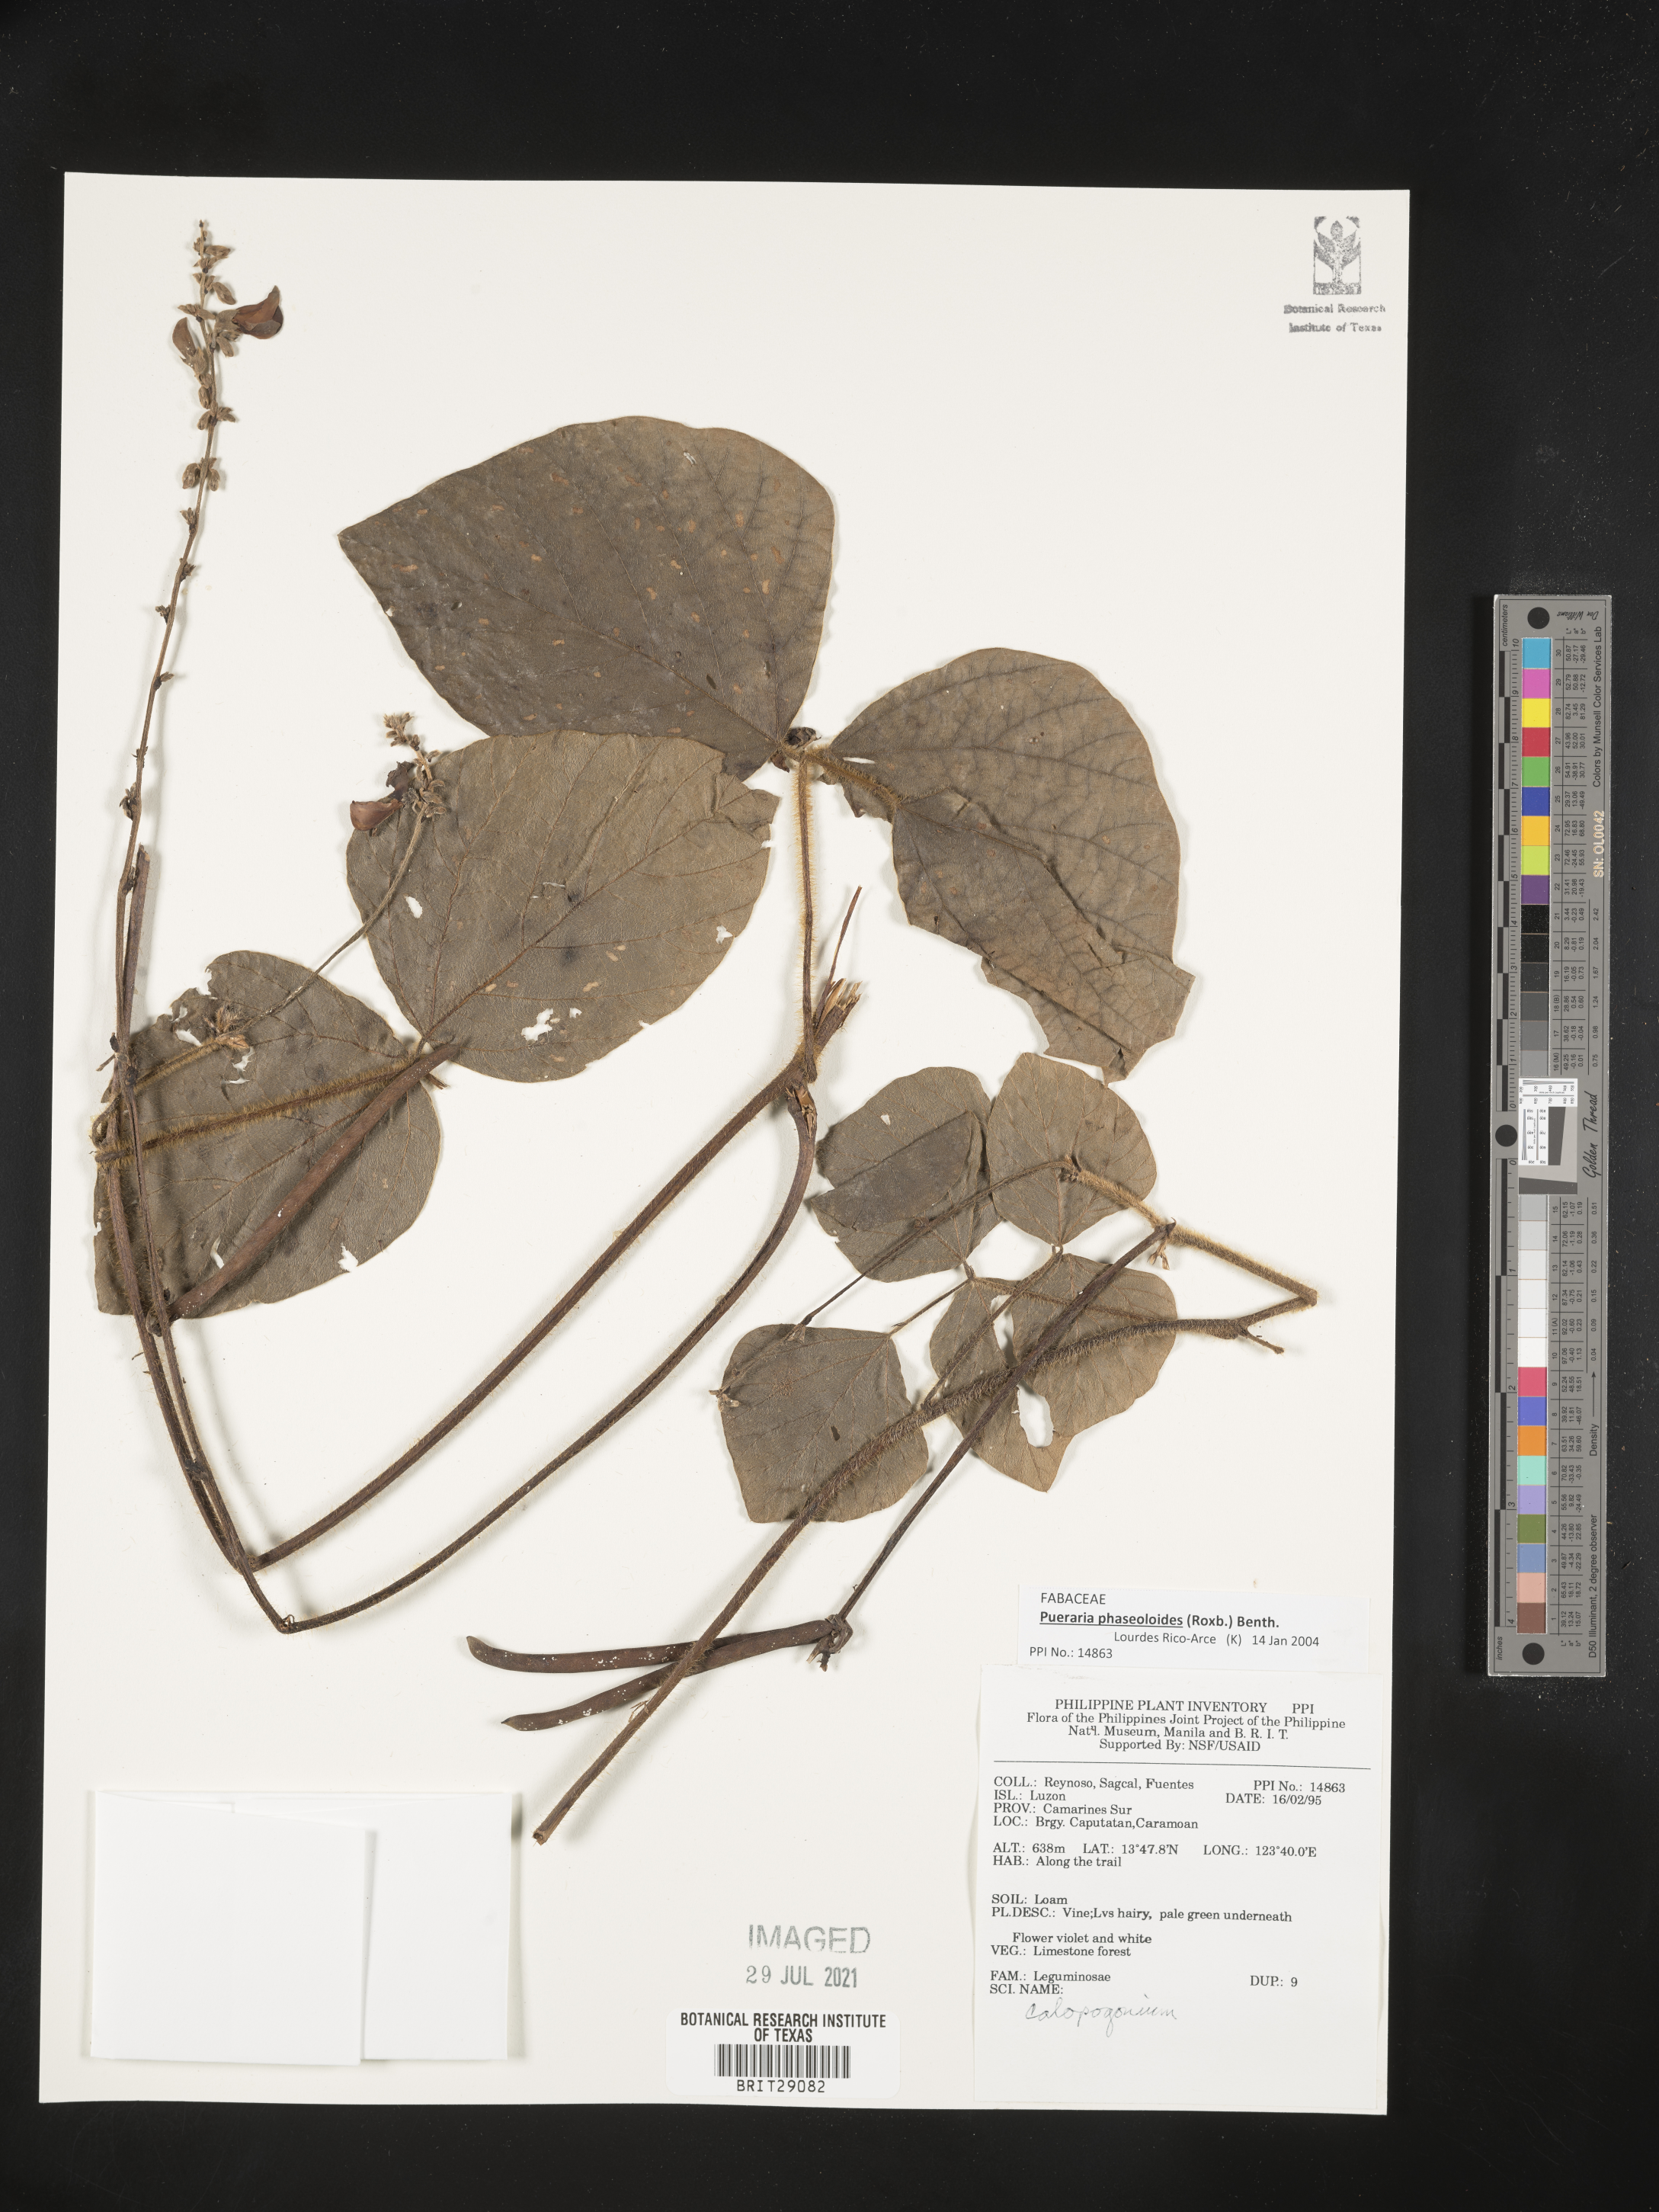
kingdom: Plantae
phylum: Tracheophyta
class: Magnoliopsida
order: Fabales
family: Fabaceae
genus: Neustanthus
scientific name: Neustanthus phaseoloides
